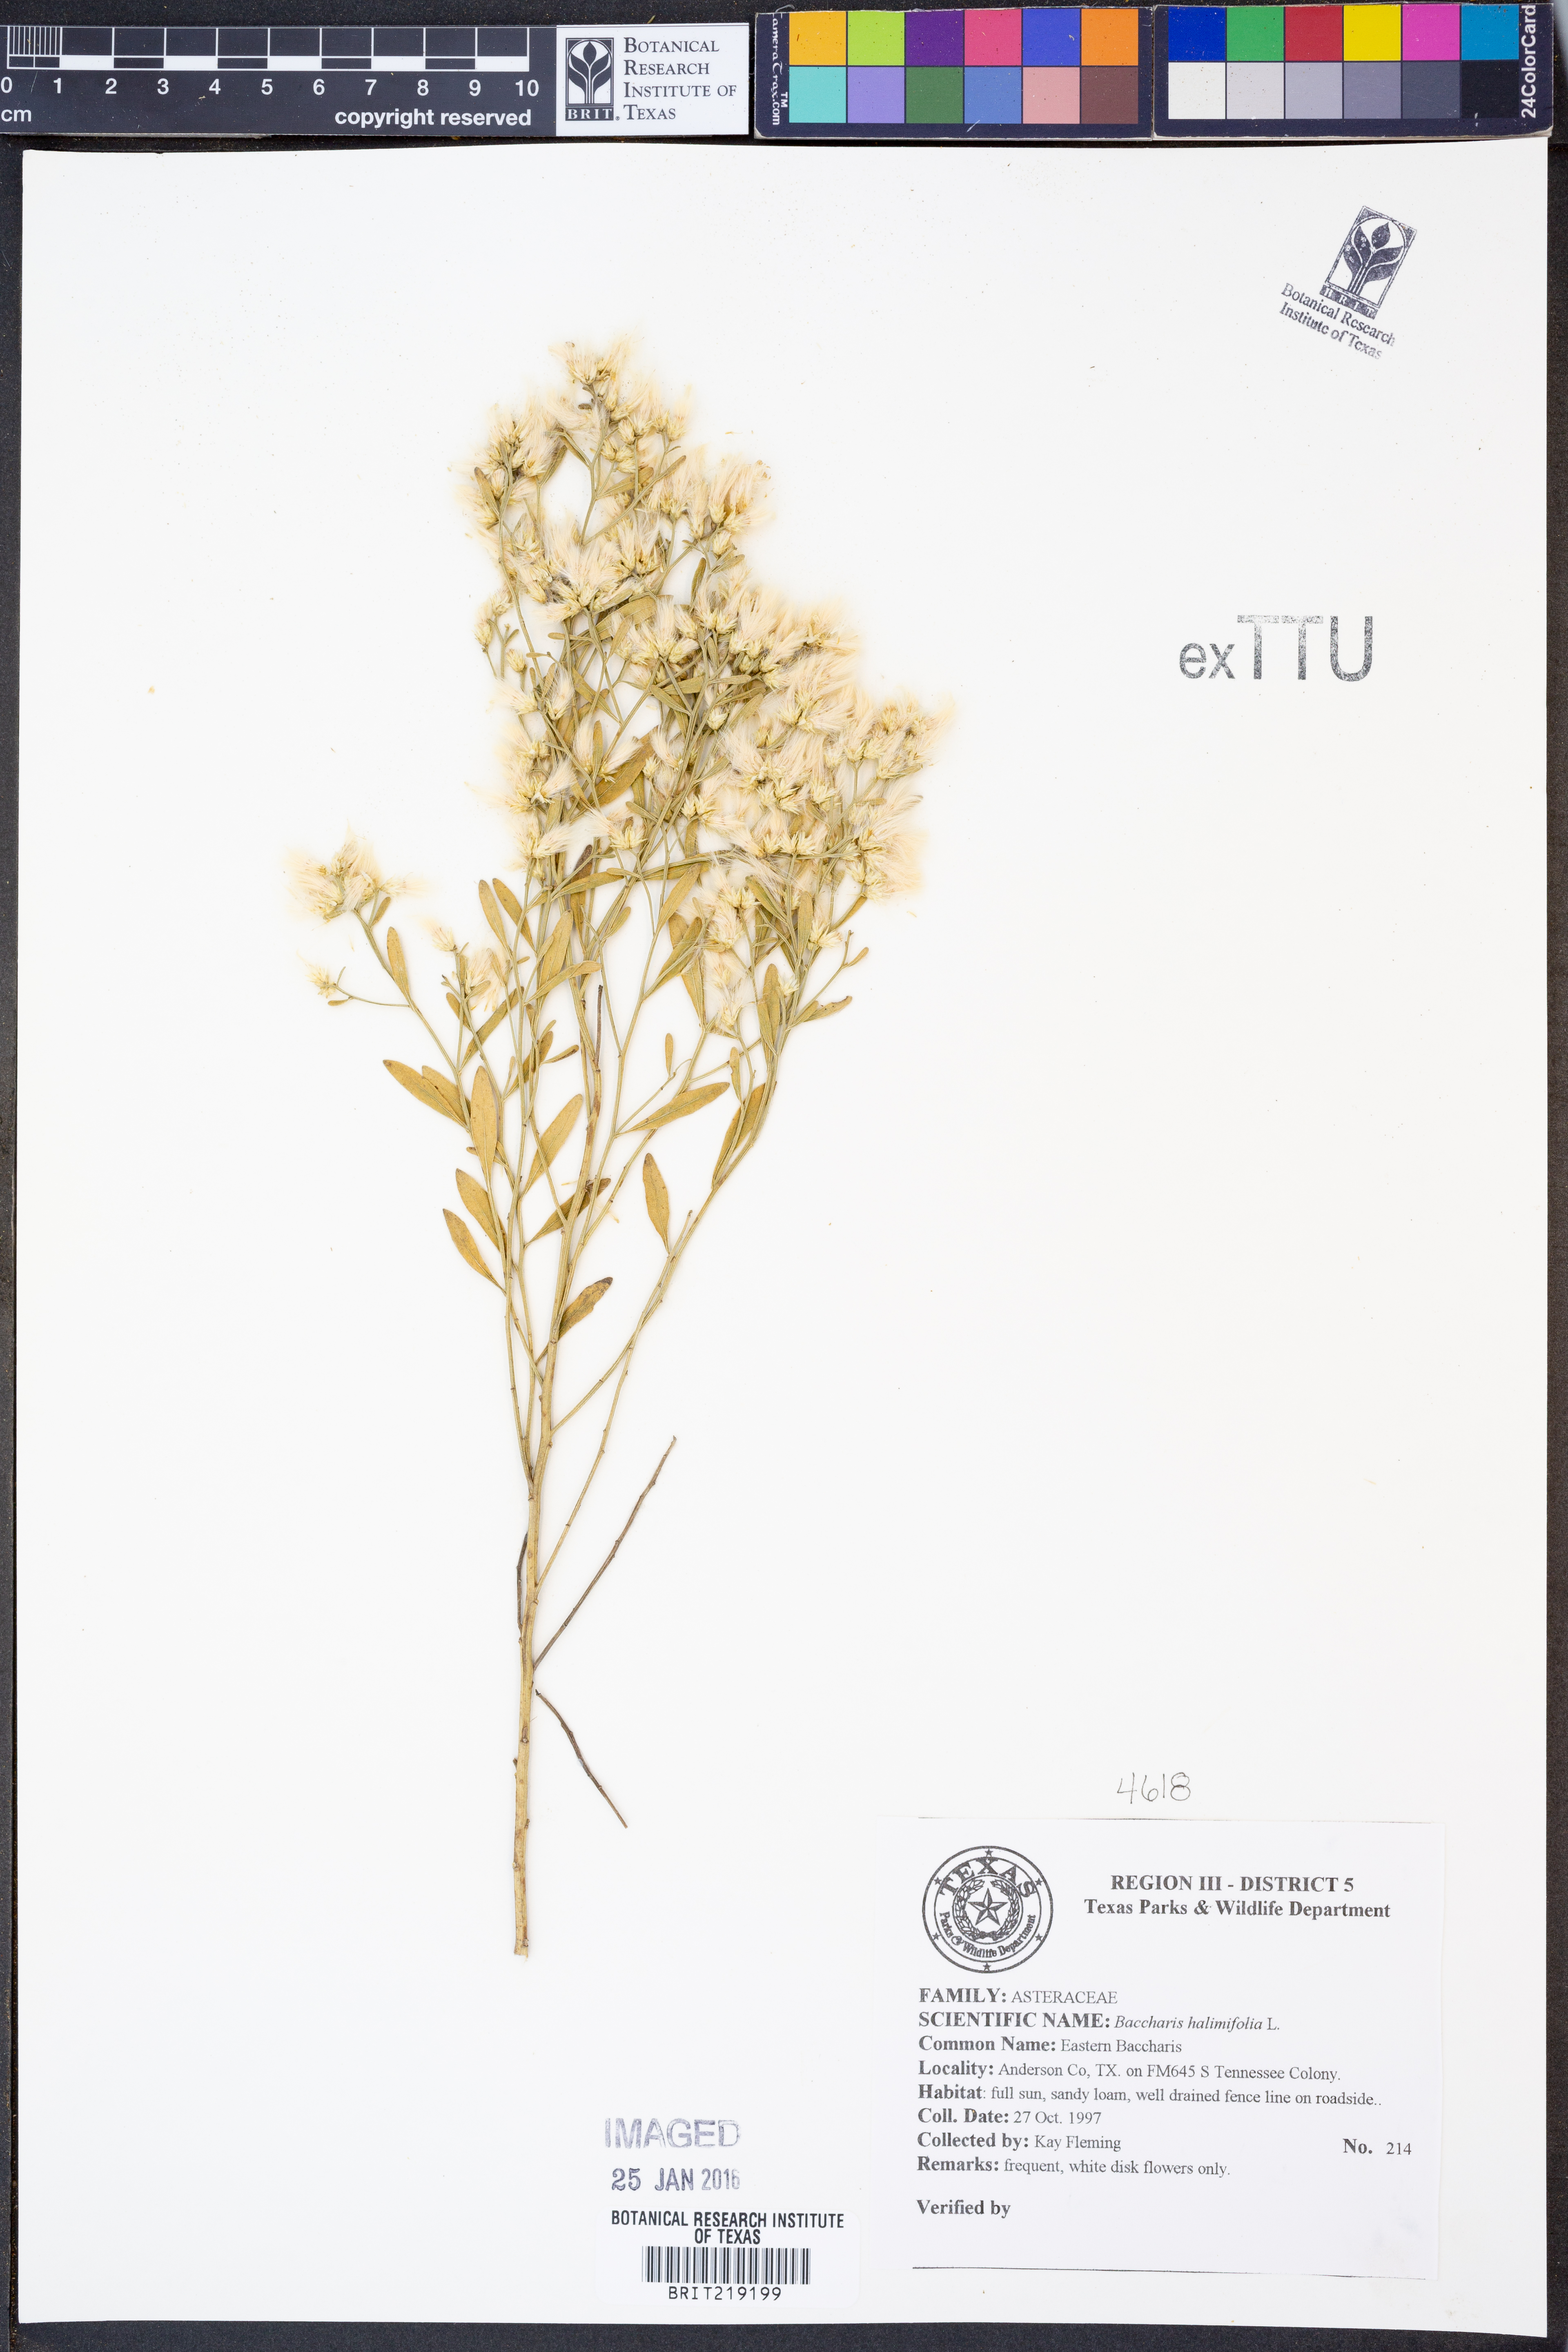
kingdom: Plantae
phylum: Tracheophyta
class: Magnoliopsida
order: Asterales
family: Asteraceae
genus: Nidorella
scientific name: Nidorella ivifolia
